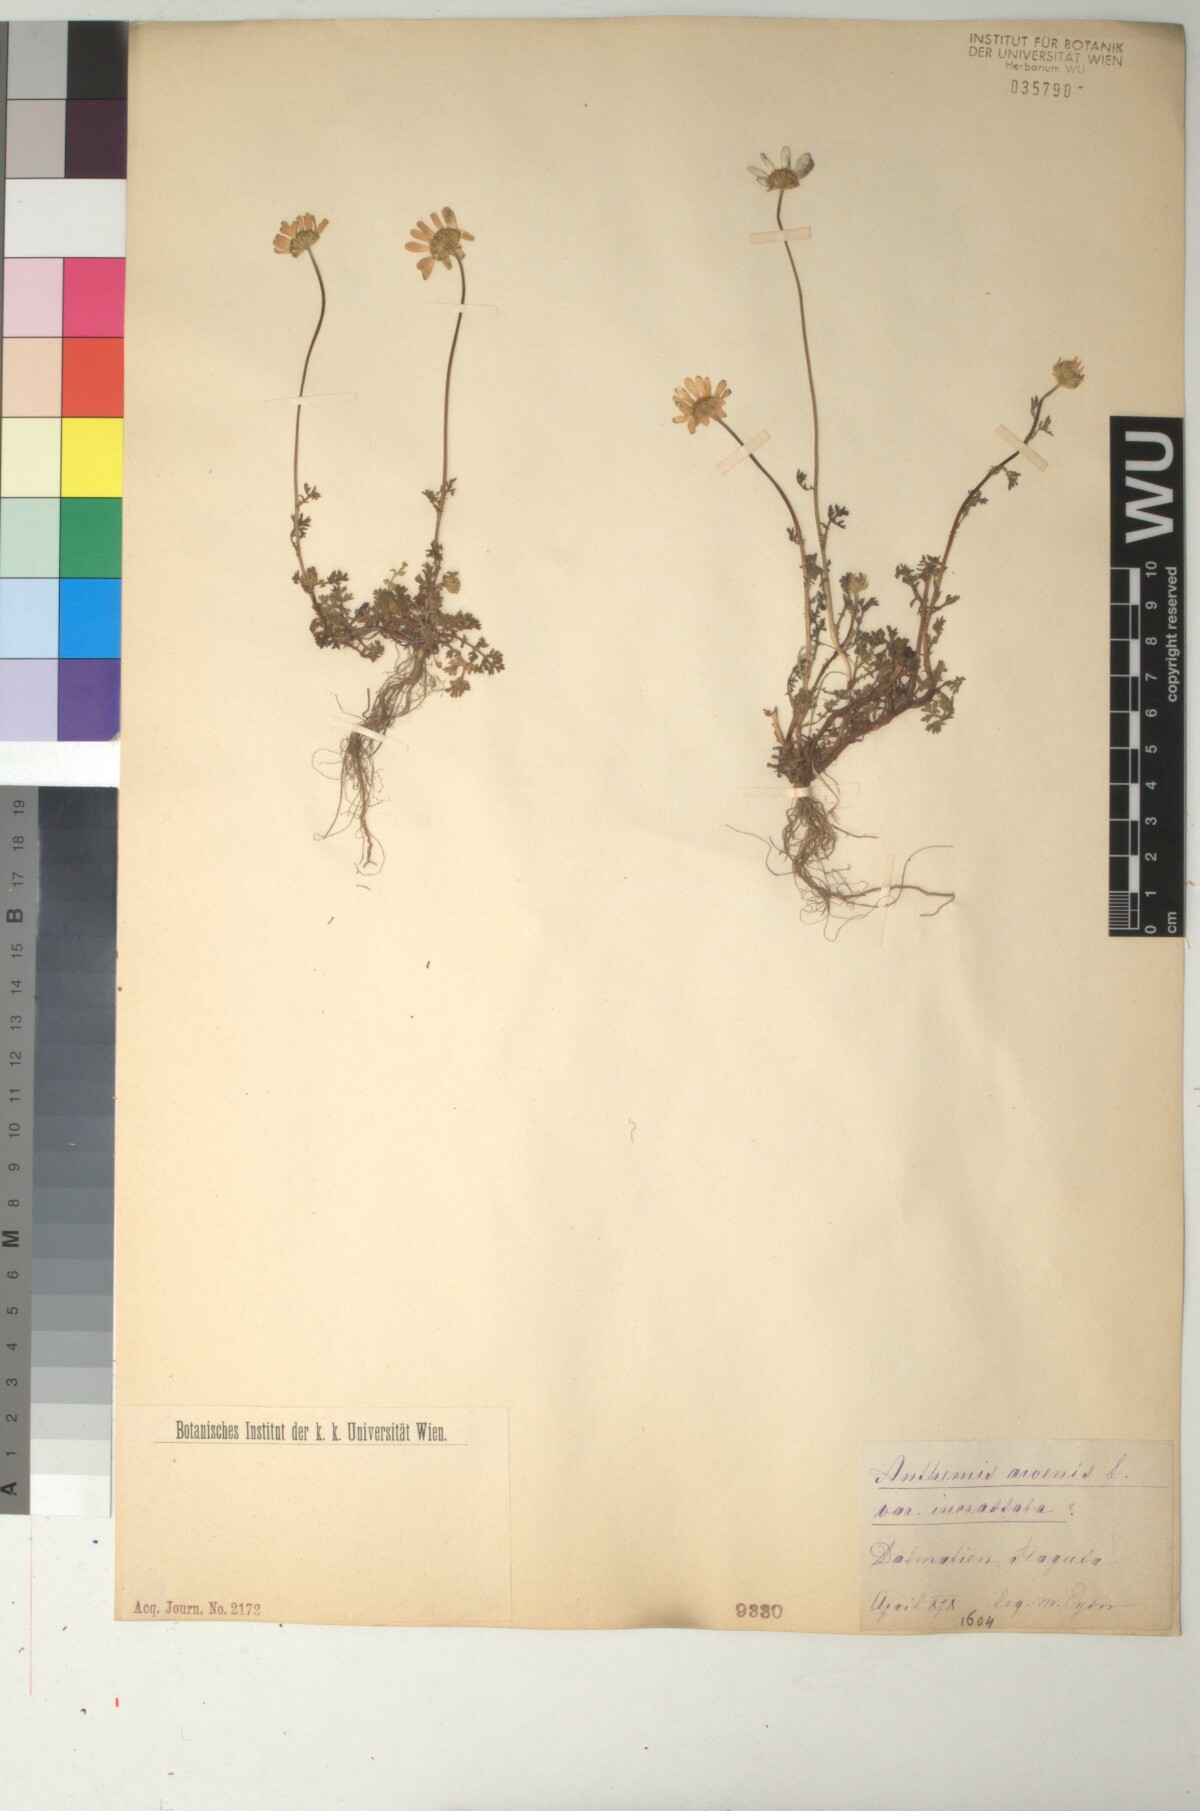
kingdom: Plantae
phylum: Tracheophyta
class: Magnoliopsida
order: Asterales
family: Asteraceae
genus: Anthemis
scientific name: Anthemis chia
